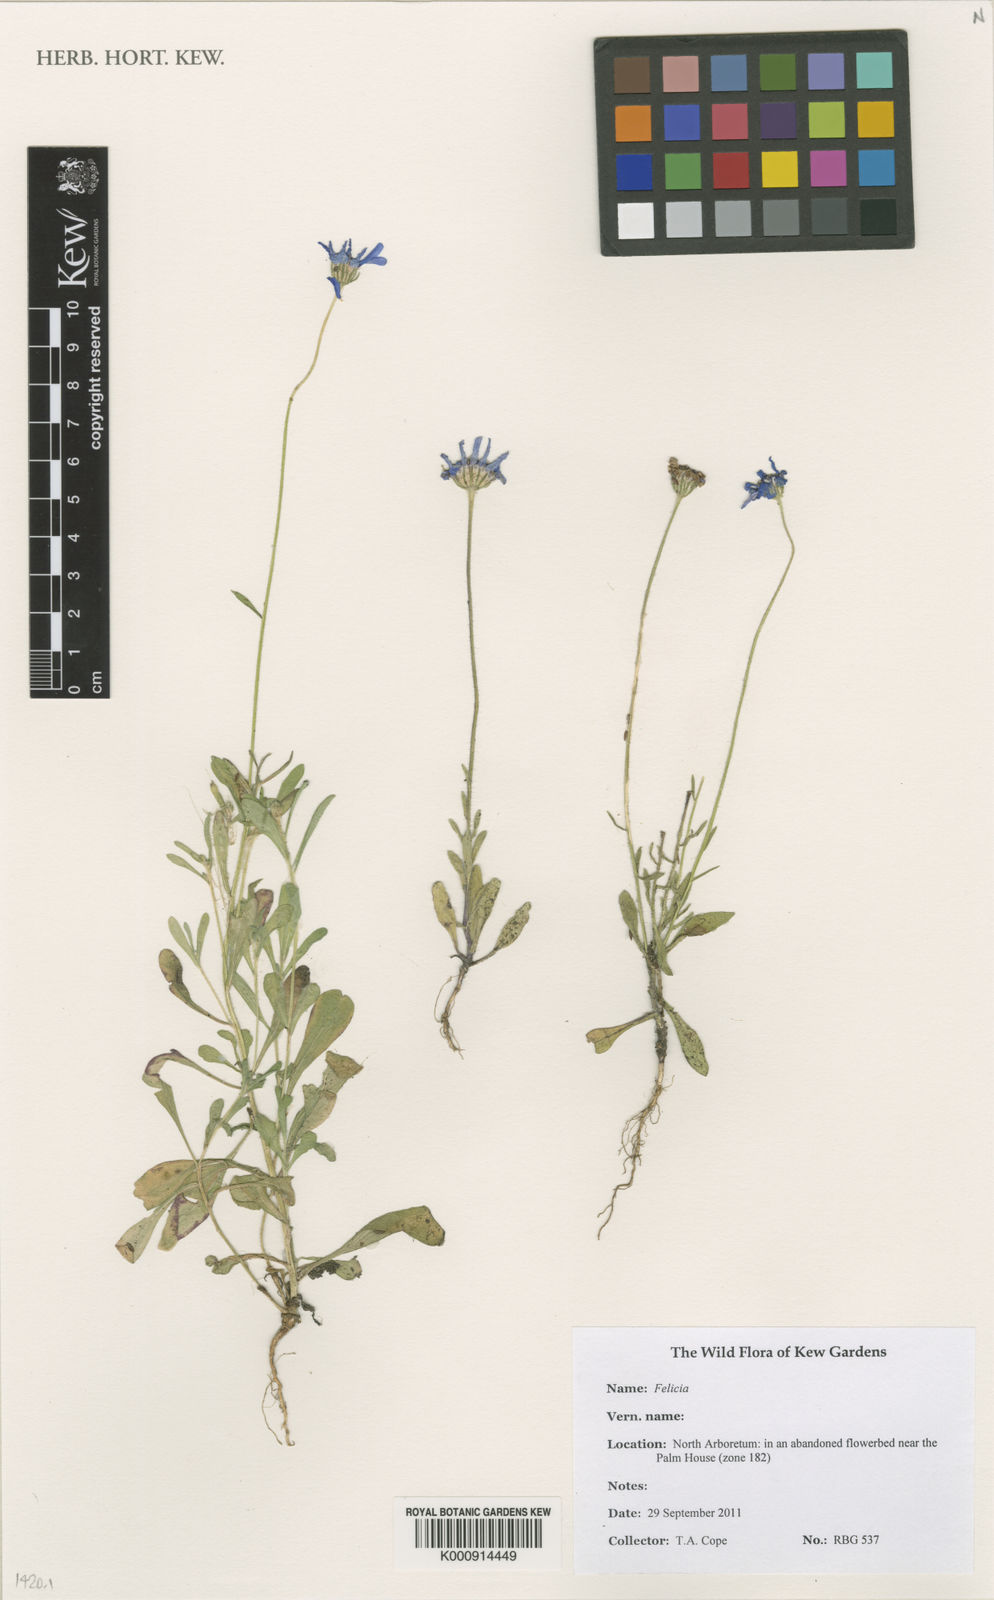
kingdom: Plantae
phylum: Tracheophyta
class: Magnoliopsida
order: Asterales
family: Asteraceae
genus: Felicia
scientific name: Felicia
